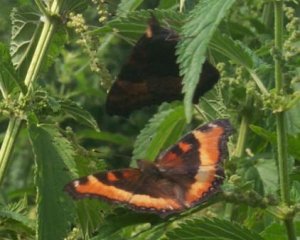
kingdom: Animalia
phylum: Arthropoda
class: Insecta
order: Lepidoptera
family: Nymphalidae
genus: Aglais
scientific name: Aglais milberti
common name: Milbert's Tortoiseshell
